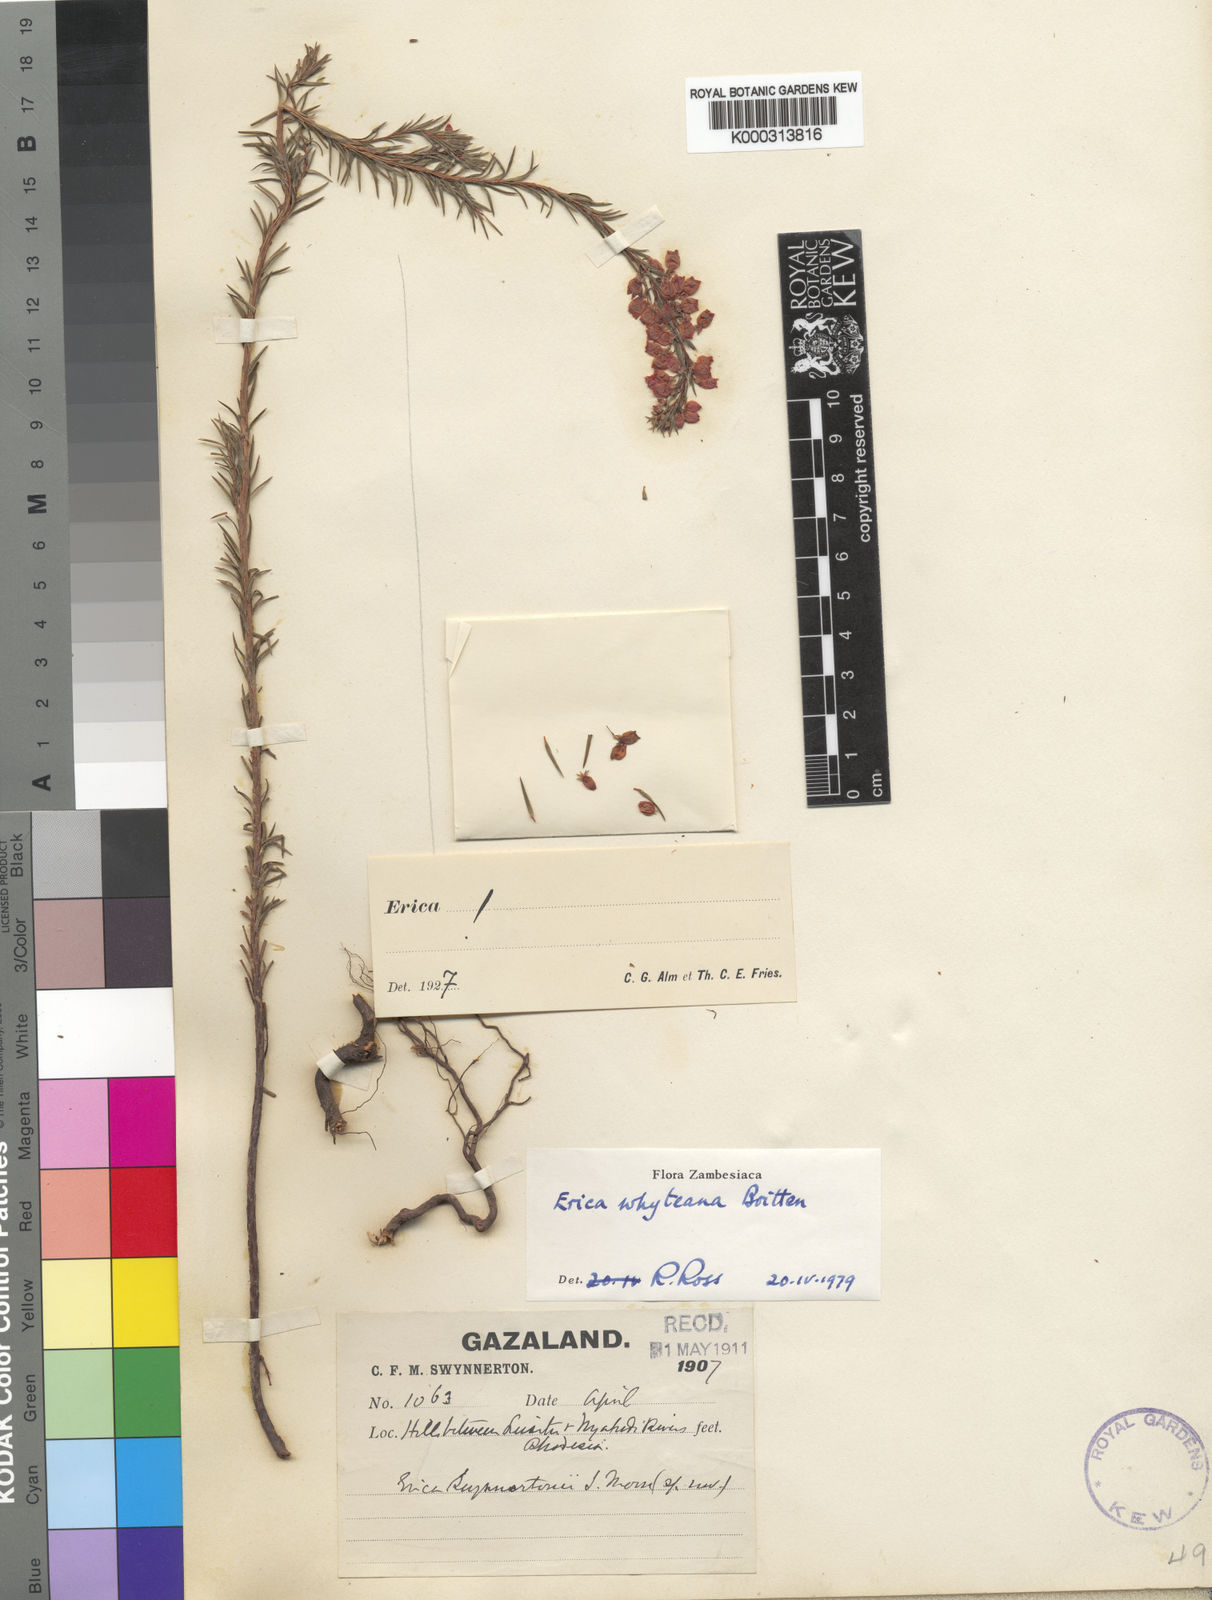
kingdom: Plantae
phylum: Tracheophyta
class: Magnoliopsida
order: Ericales
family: Ericaceae
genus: Erica
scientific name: Erica whyteana
